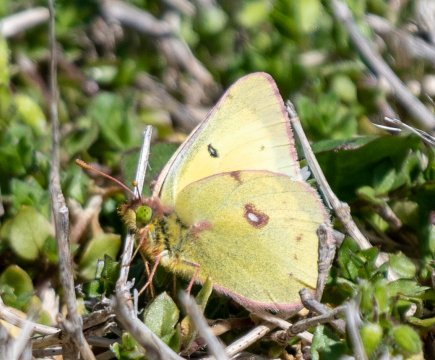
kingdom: Animalia
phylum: Arthropoda
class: Insecta
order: Lepidoptera
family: Pieridae
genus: Colias
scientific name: Colias philodice
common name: Clouded Sulphur
